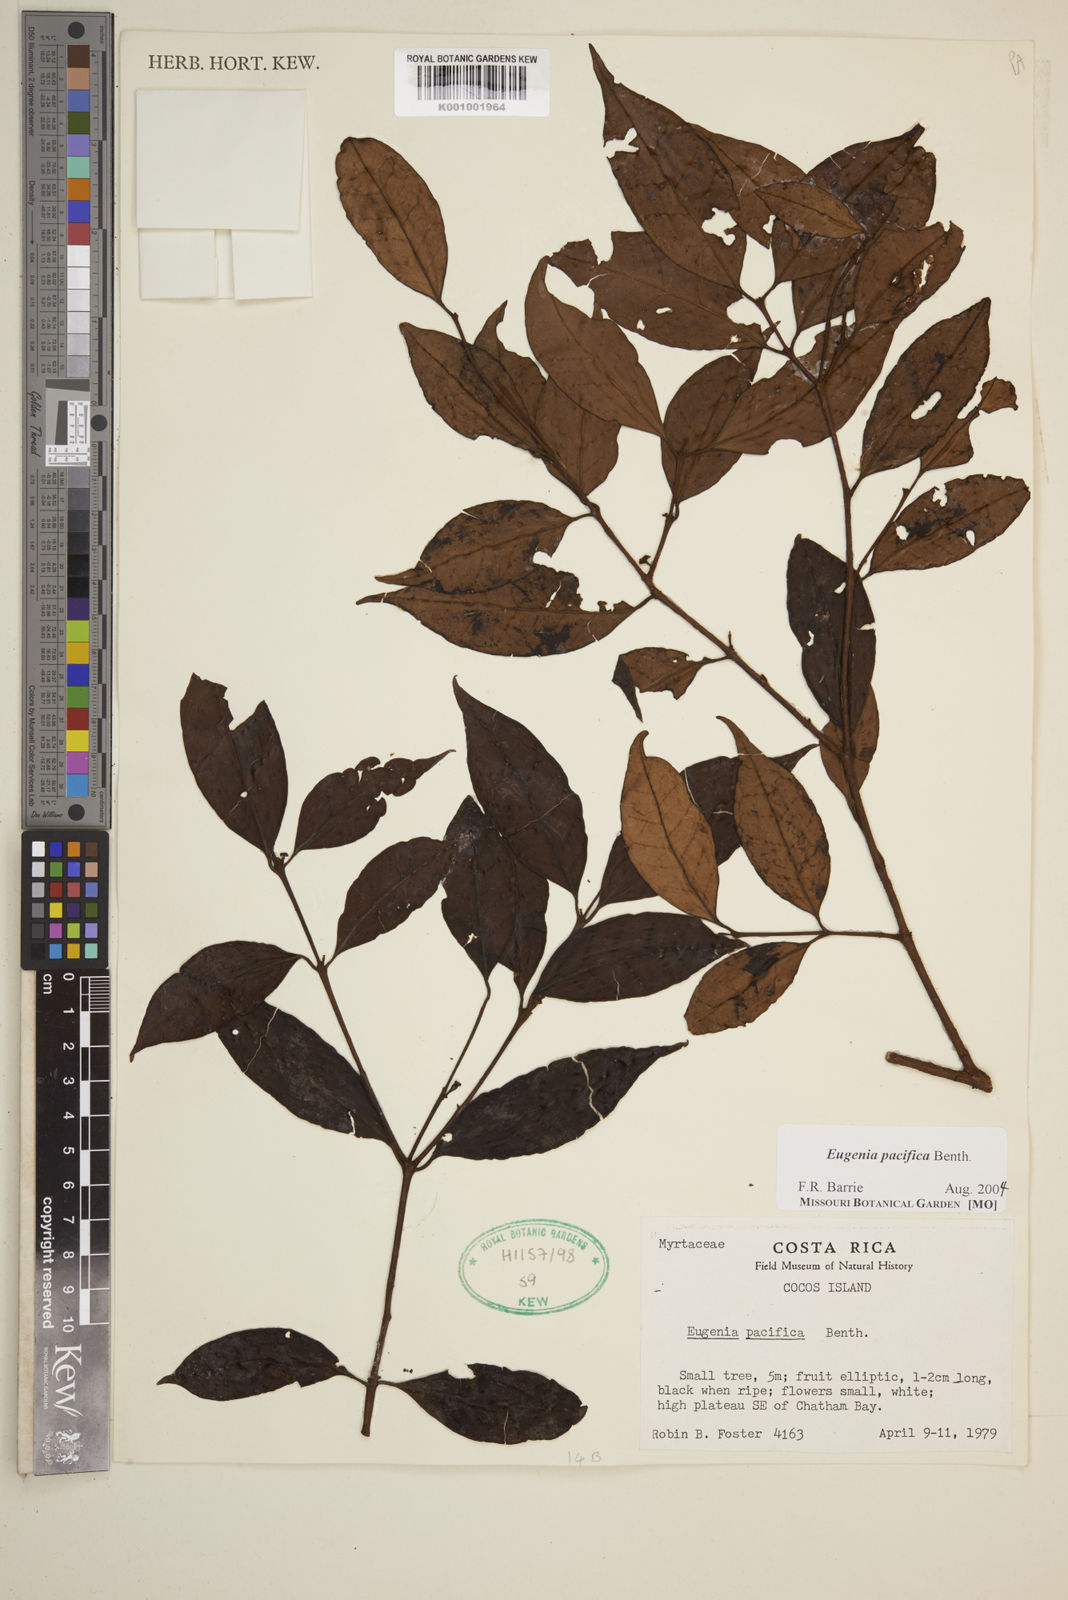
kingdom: Plantae
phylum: Tracheophyta
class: Magnoliopsida
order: Myrtales
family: Myrtaceae
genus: Eugenia
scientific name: Eugenia pacifica
